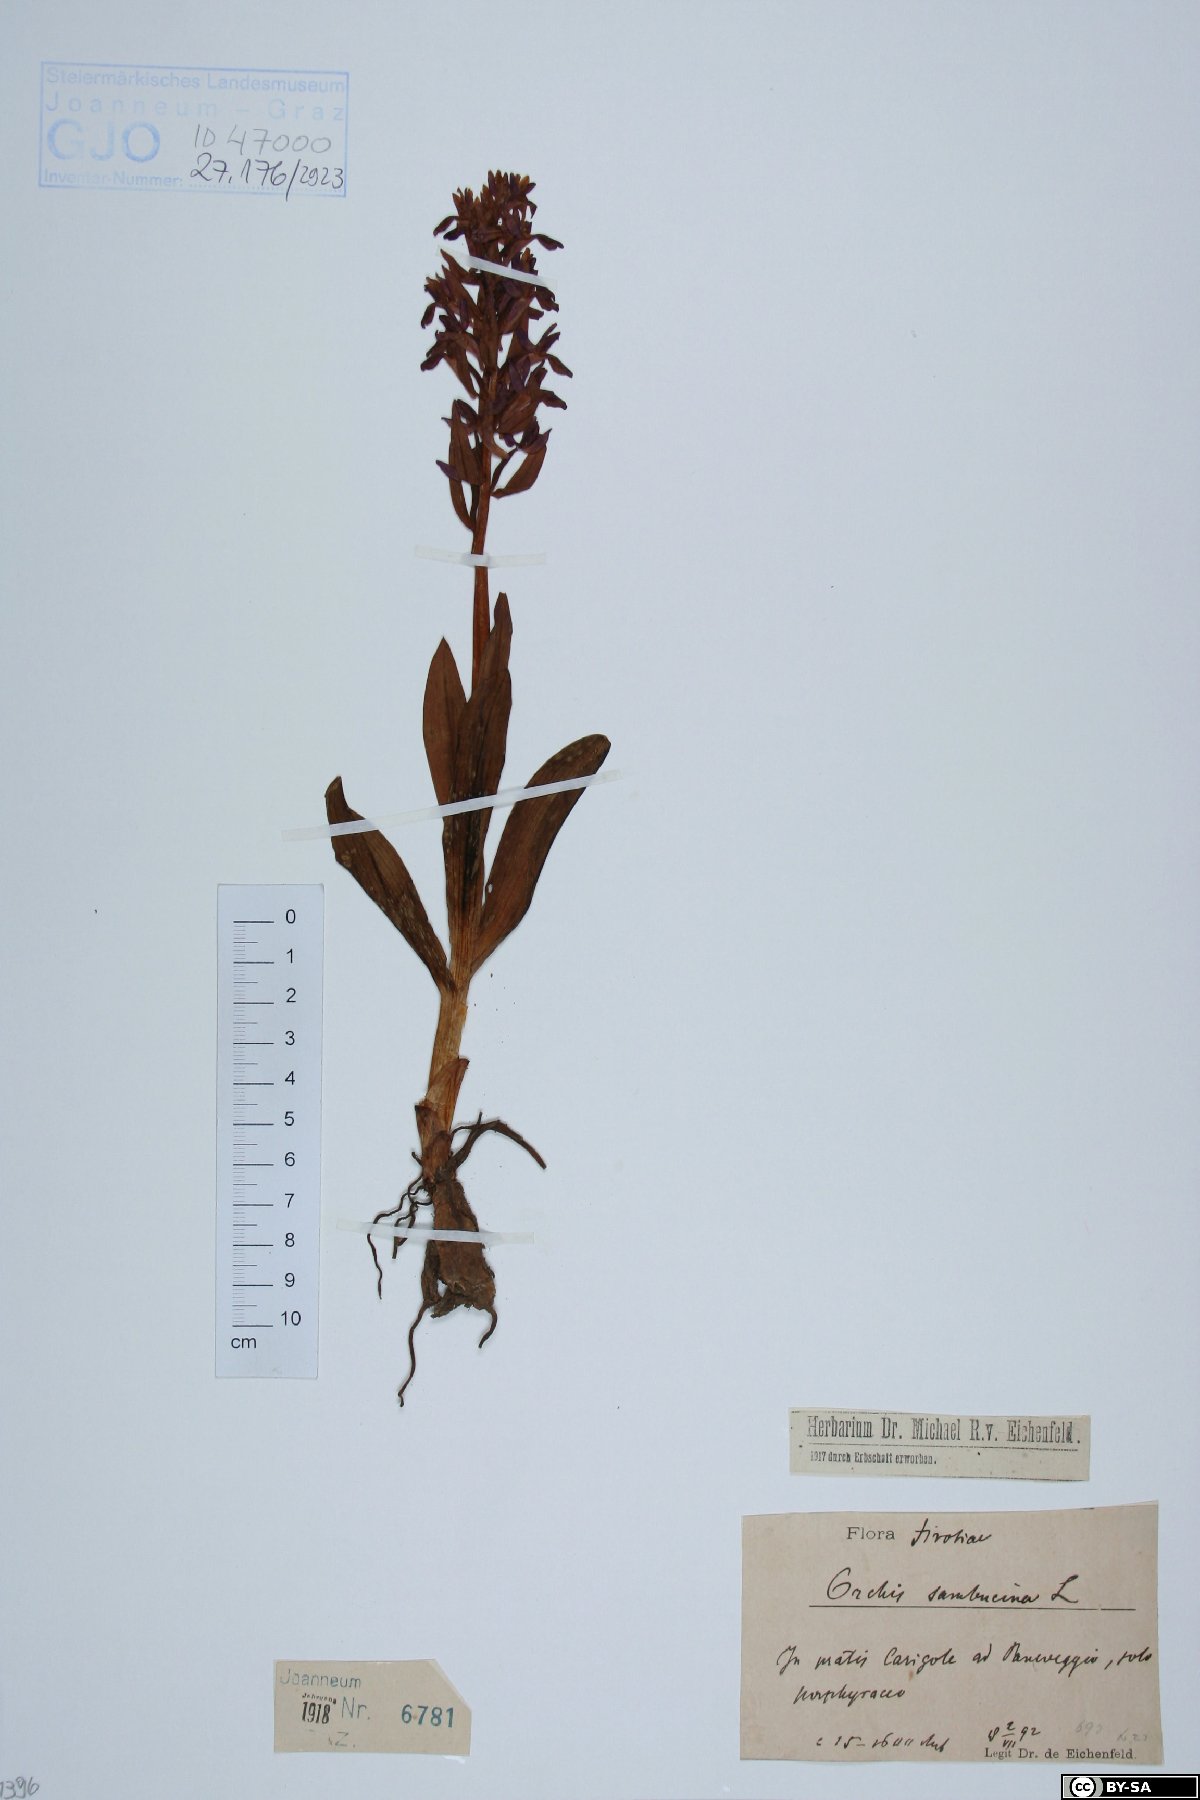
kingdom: Plantae
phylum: Tracheophyta
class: Liliopsida
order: Asparagales
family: Orchidaceae
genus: Dactylorhiza
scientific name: Dactylorhiza sambucina
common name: Elder-flowered orchid
